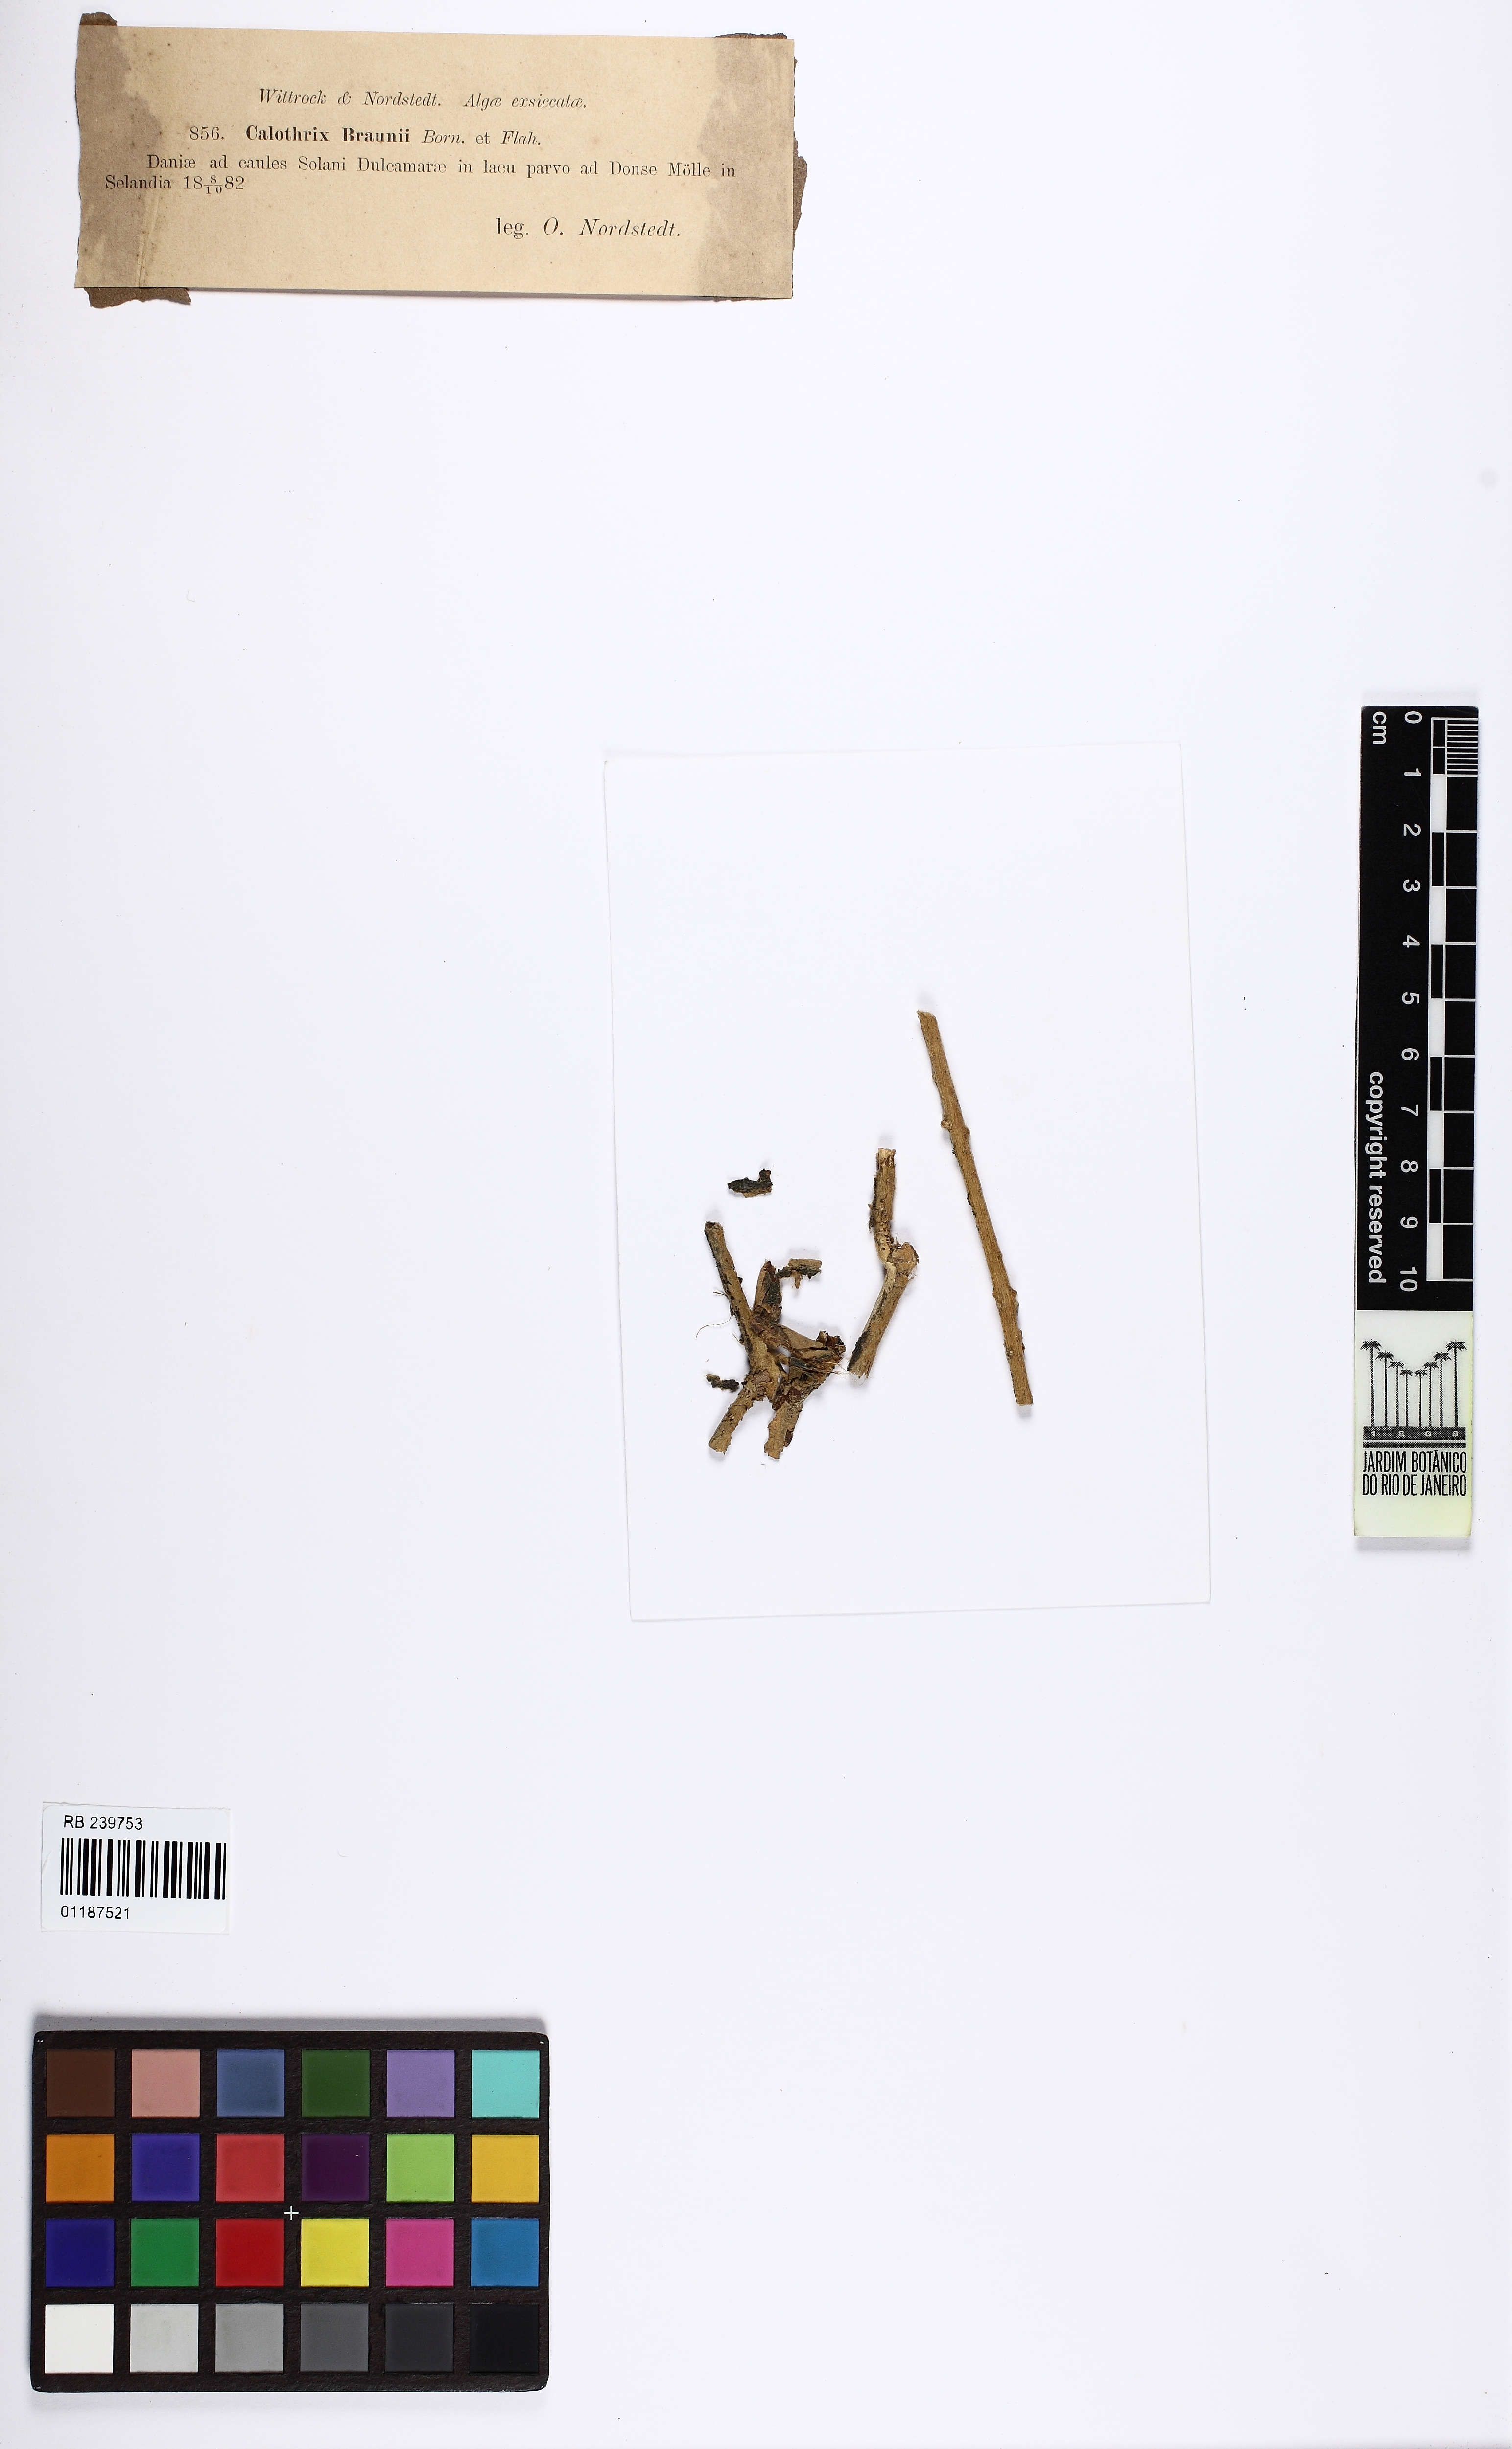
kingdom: Bacteria
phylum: Cyanobacteria
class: Cyanobacteriia
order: Cyanobacteriales
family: Nostocaceae
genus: Calothrix
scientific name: Calothrix braunii
